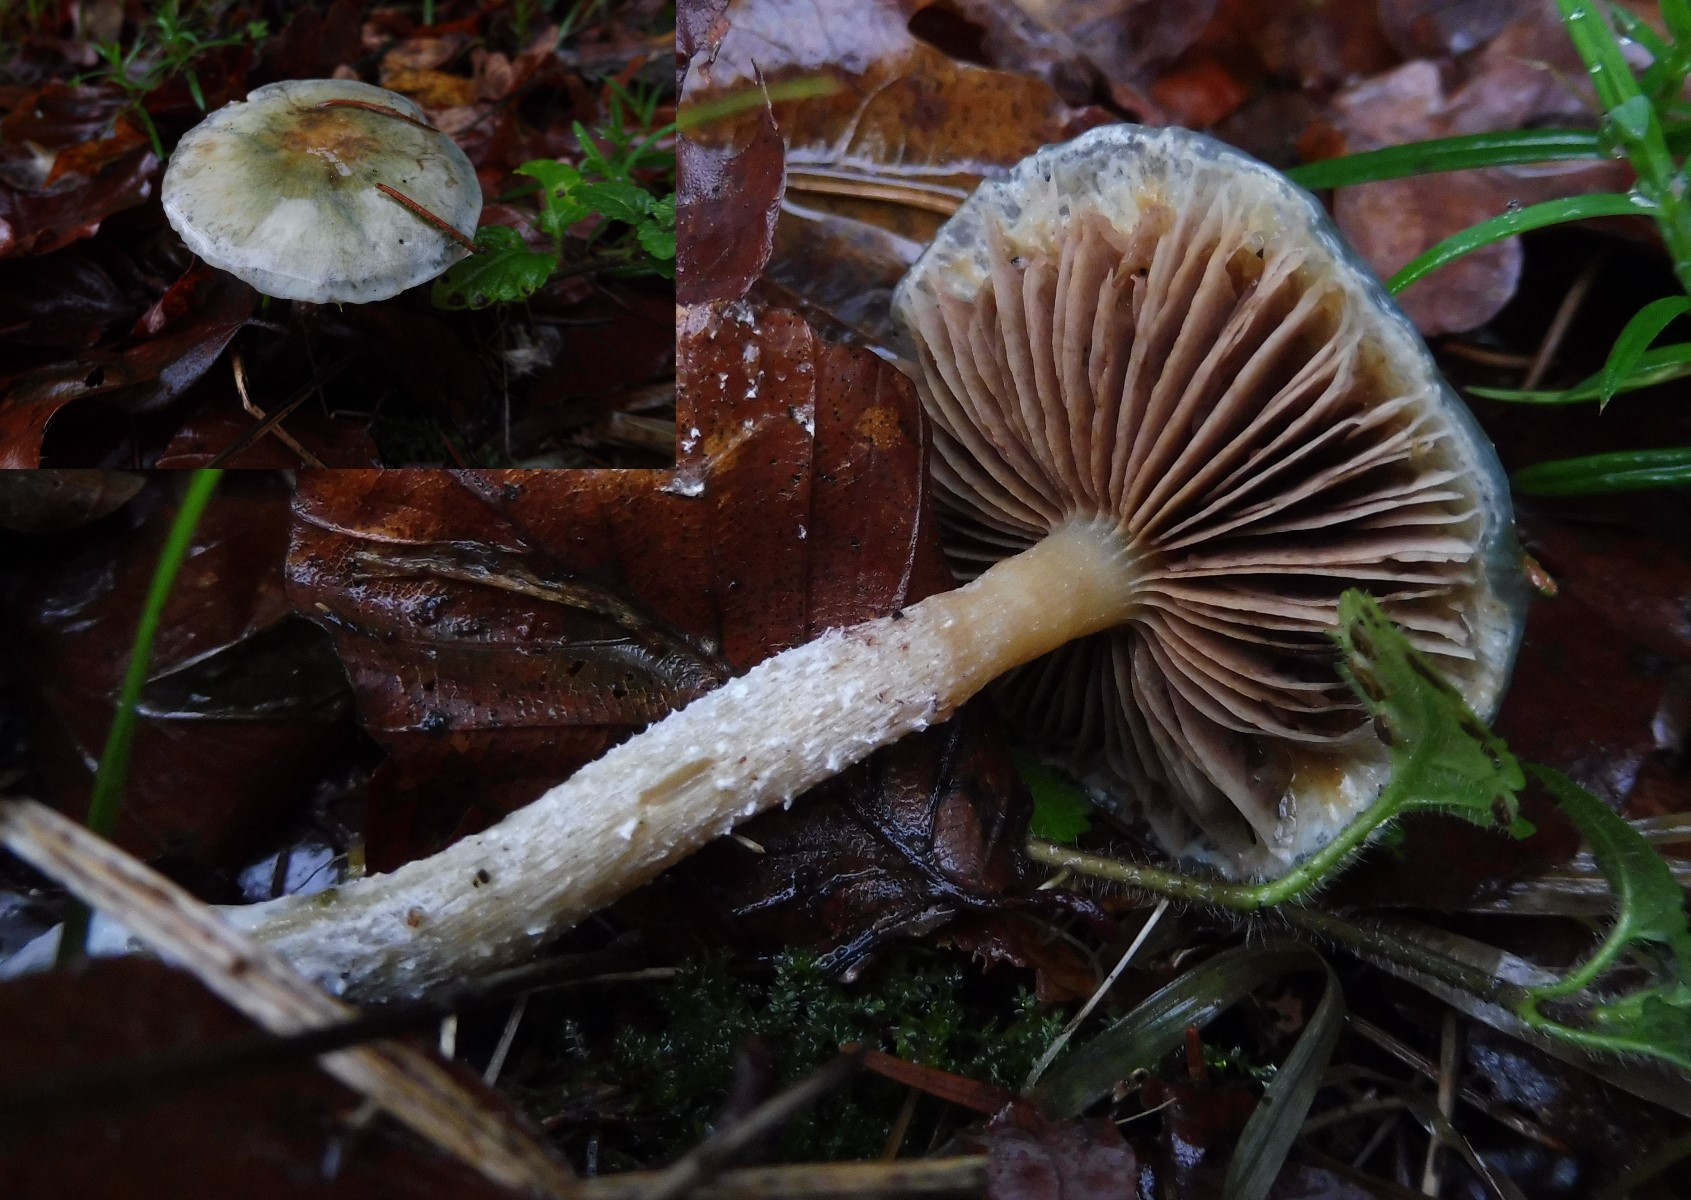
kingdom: Fungi
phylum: Basidiomycota
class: Agaricomycetes
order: Agaricales
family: Strophariaceae
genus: Stropharia
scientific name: Stropharia cyanea
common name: blågrøn bredblad
